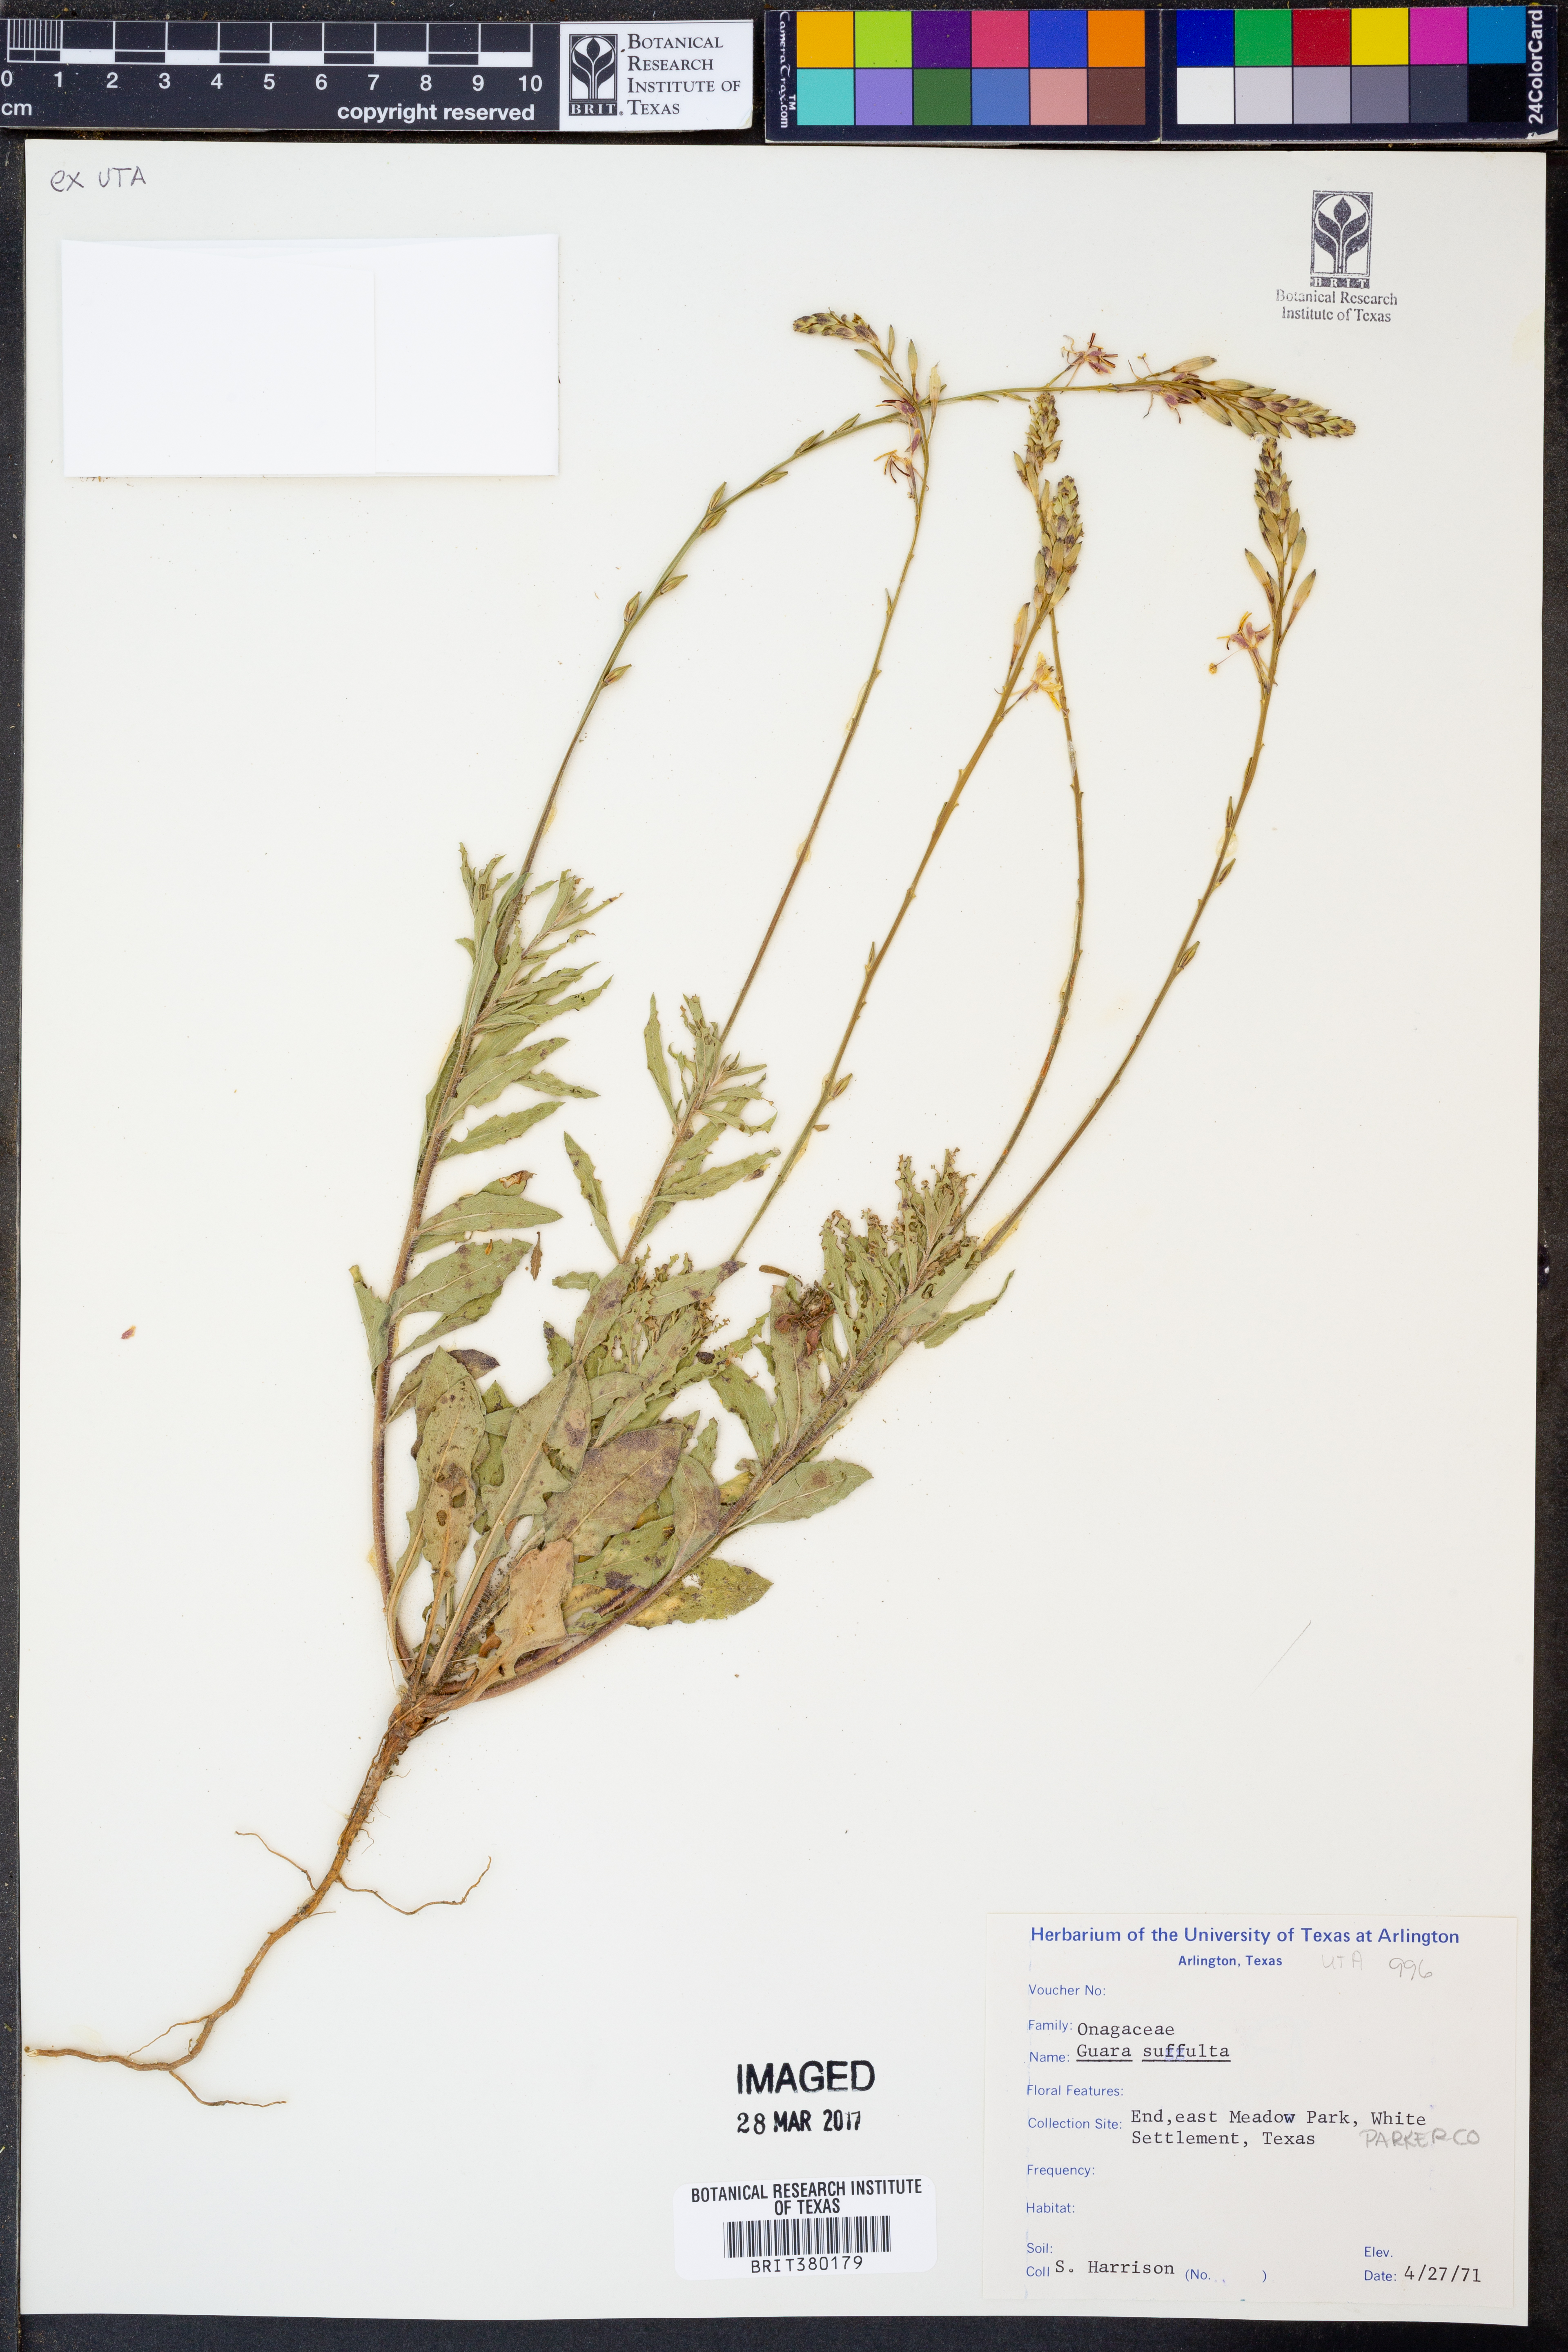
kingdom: Plantae
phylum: Tracheophyta
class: Magnoliopsida
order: Myrtales
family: Onagraceae
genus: Oenothera
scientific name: Oenothera Gaura suffulta
